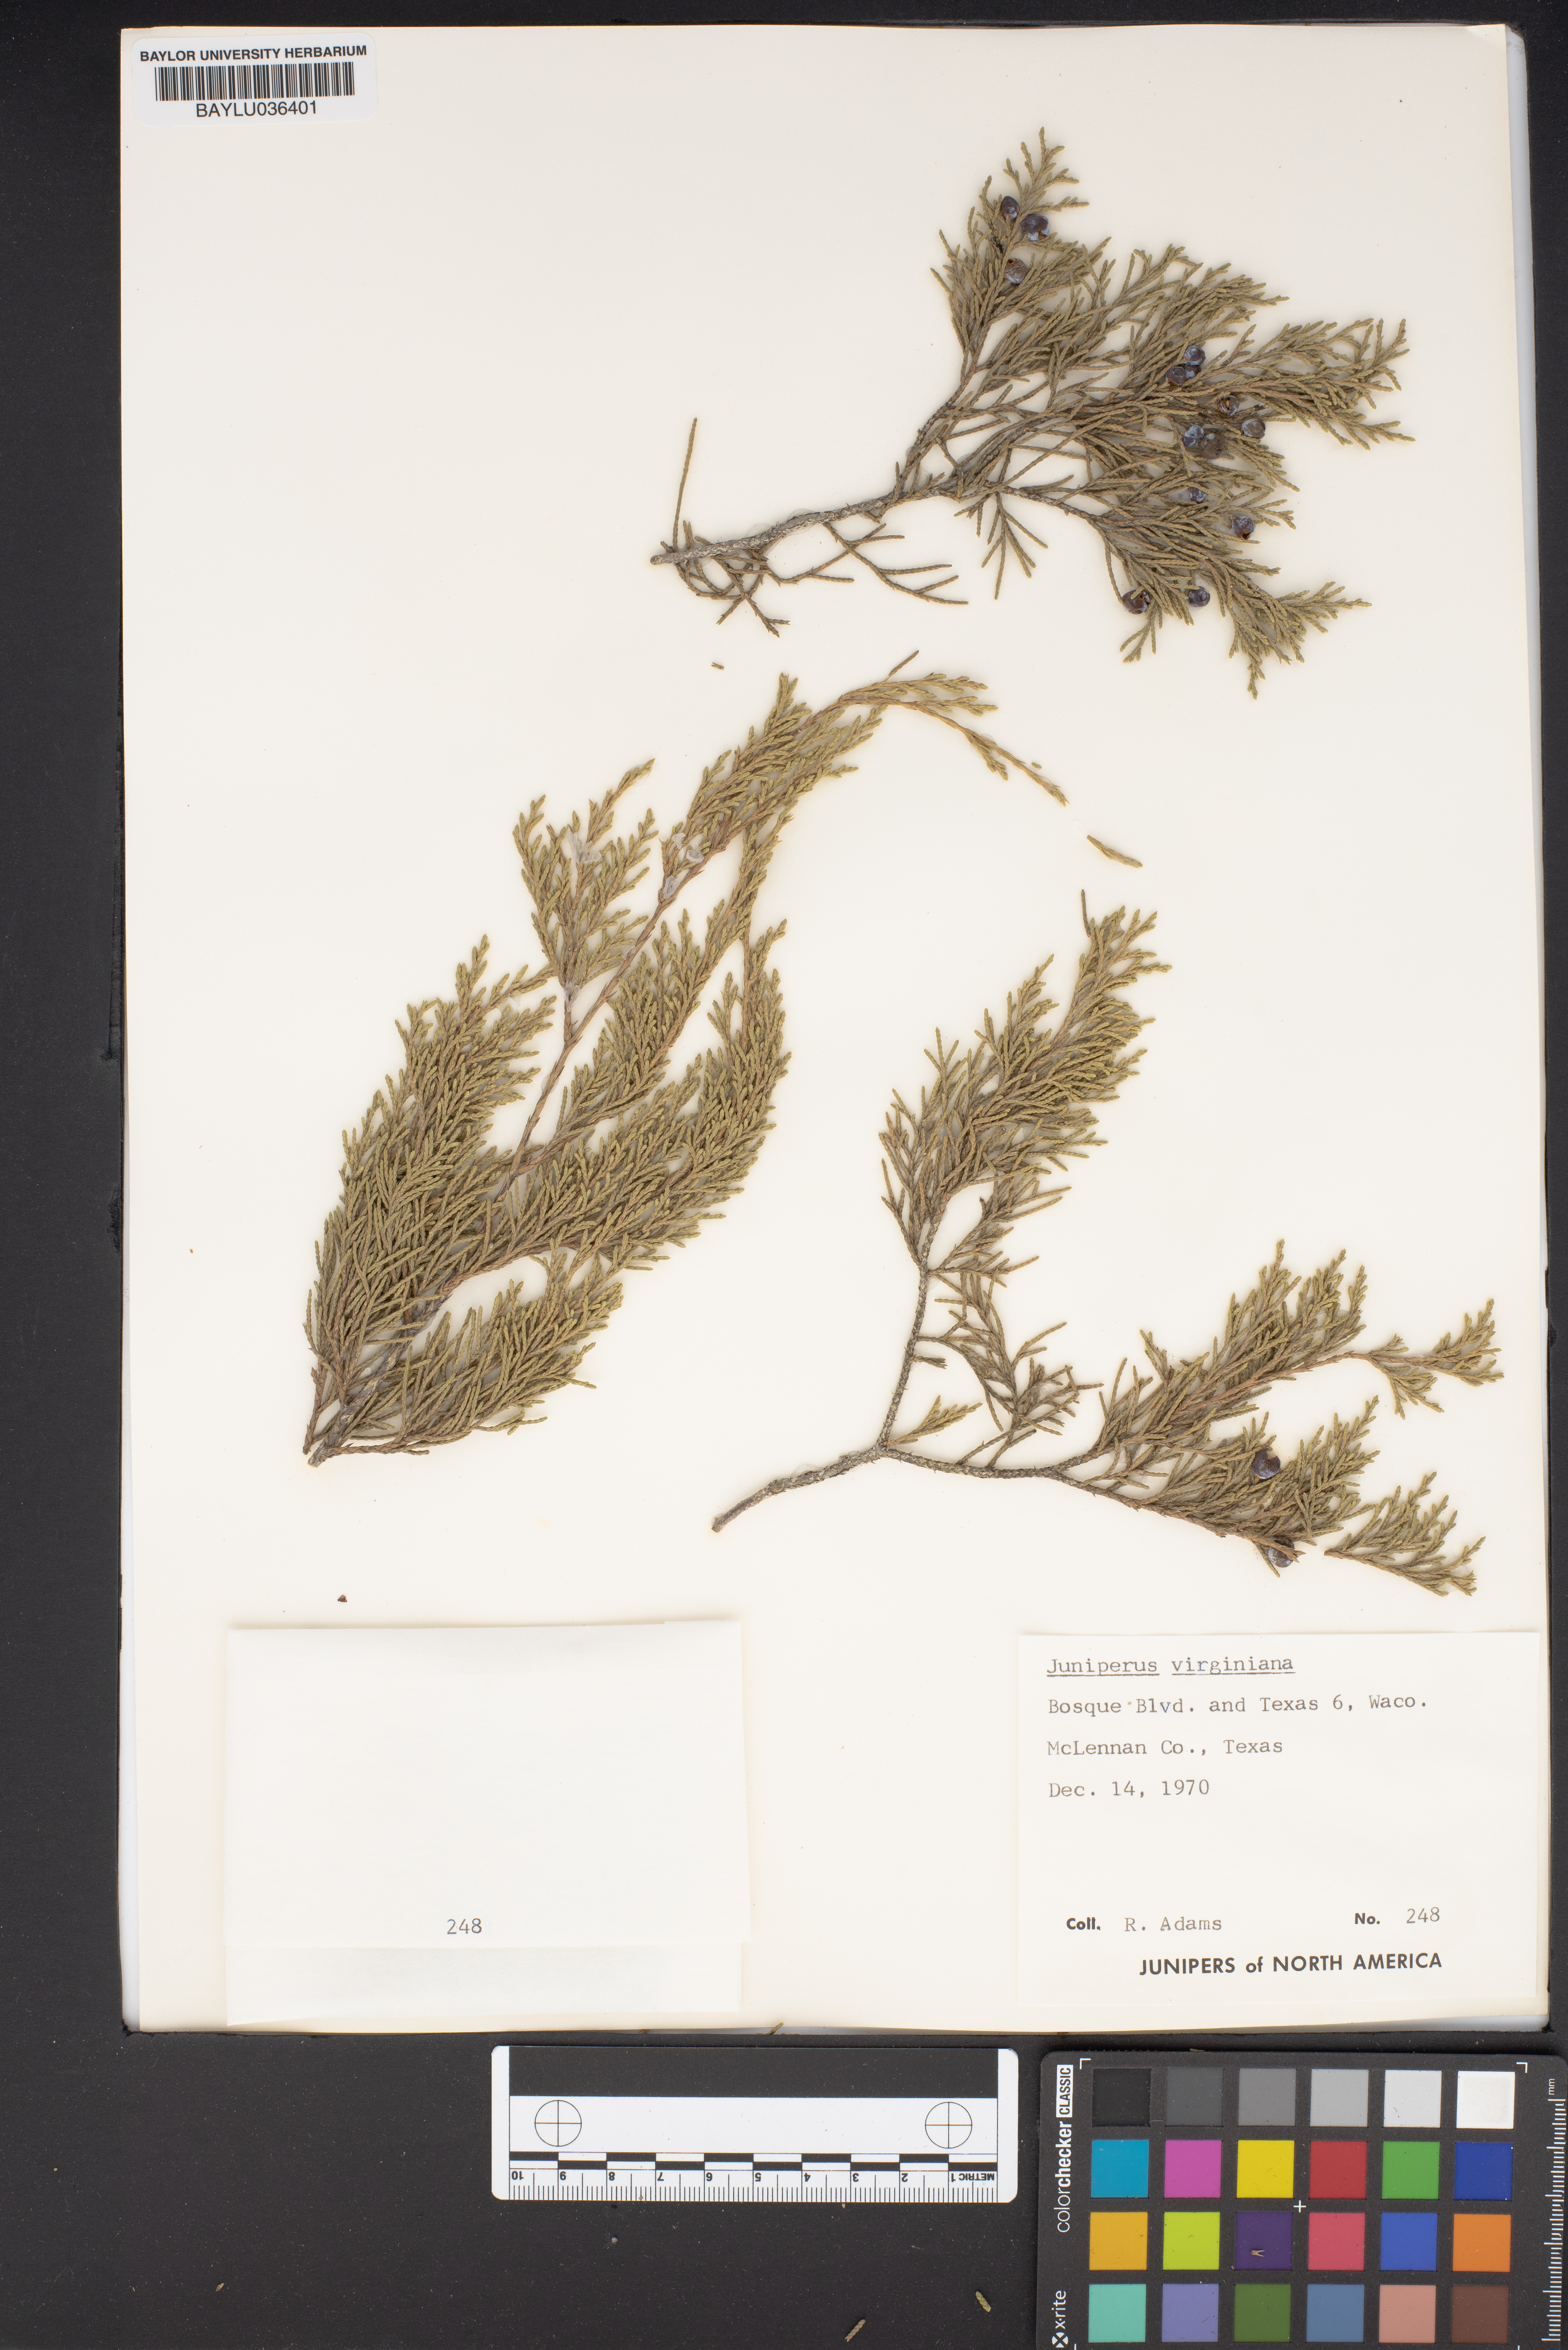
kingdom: Plantae
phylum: Tracheophyta
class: Pinopsida
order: Pinales
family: Cupressaceae
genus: Juniperus
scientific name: Juniperus virginiana
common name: Red juniper
